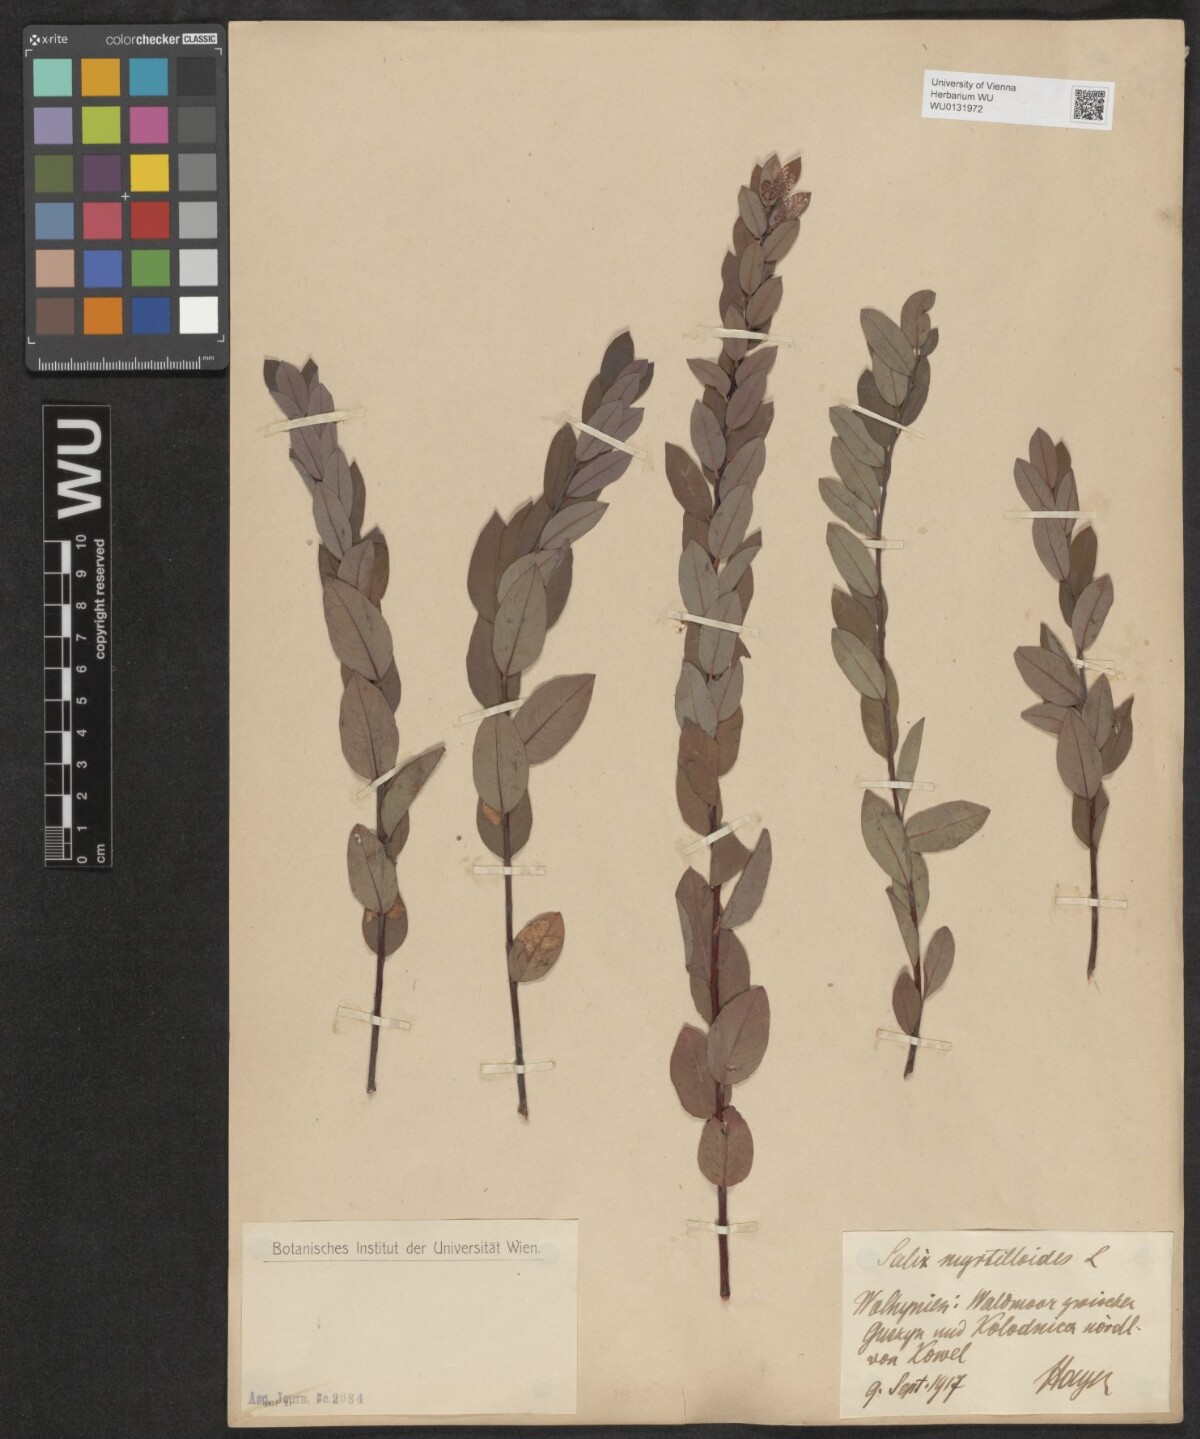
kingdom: Plantae
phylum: Tracheophyta
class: Magnoliopsida
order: Malpighiales
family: Salicaceae
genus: Salix
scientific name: Salix myrtilloides
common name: Myrtle-leaved willow
